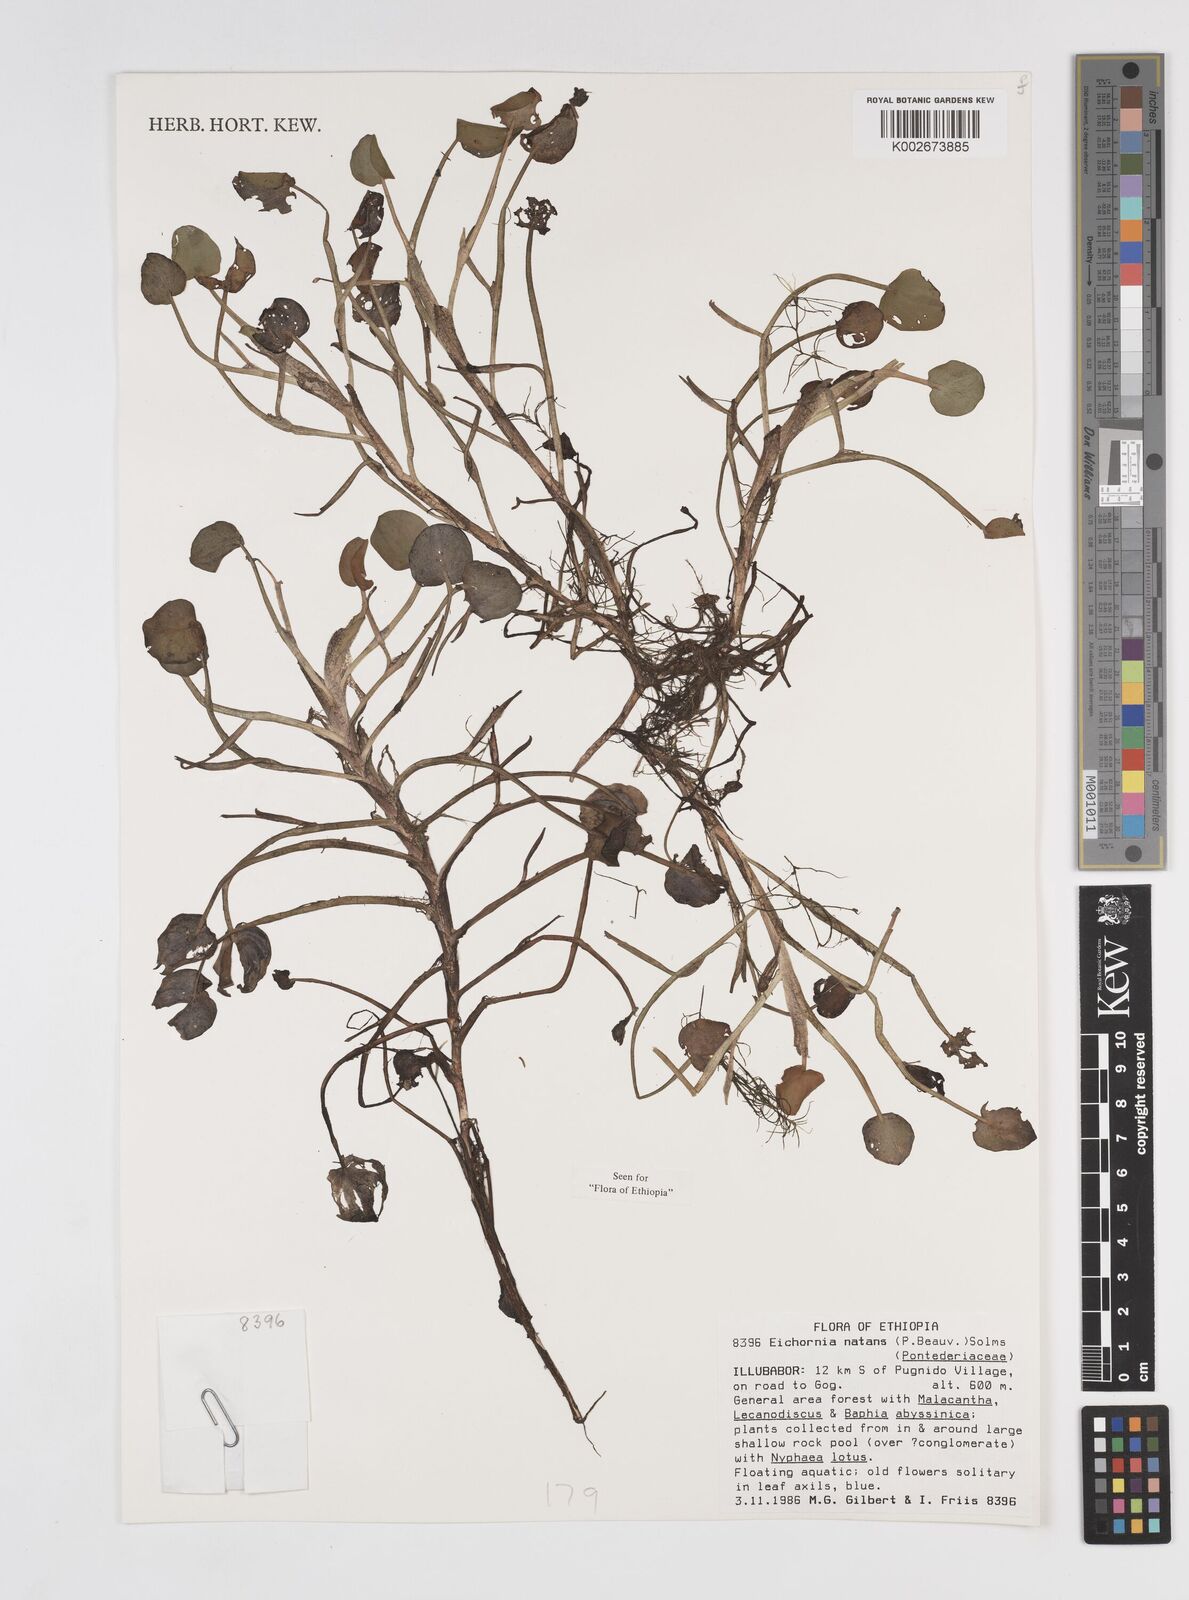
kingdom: Plantae
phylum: Tracheophyta
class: Liliopsida
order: Commelinales
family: Pontederiaceae
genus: Pontederia
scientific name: Pontederia diversifolia
